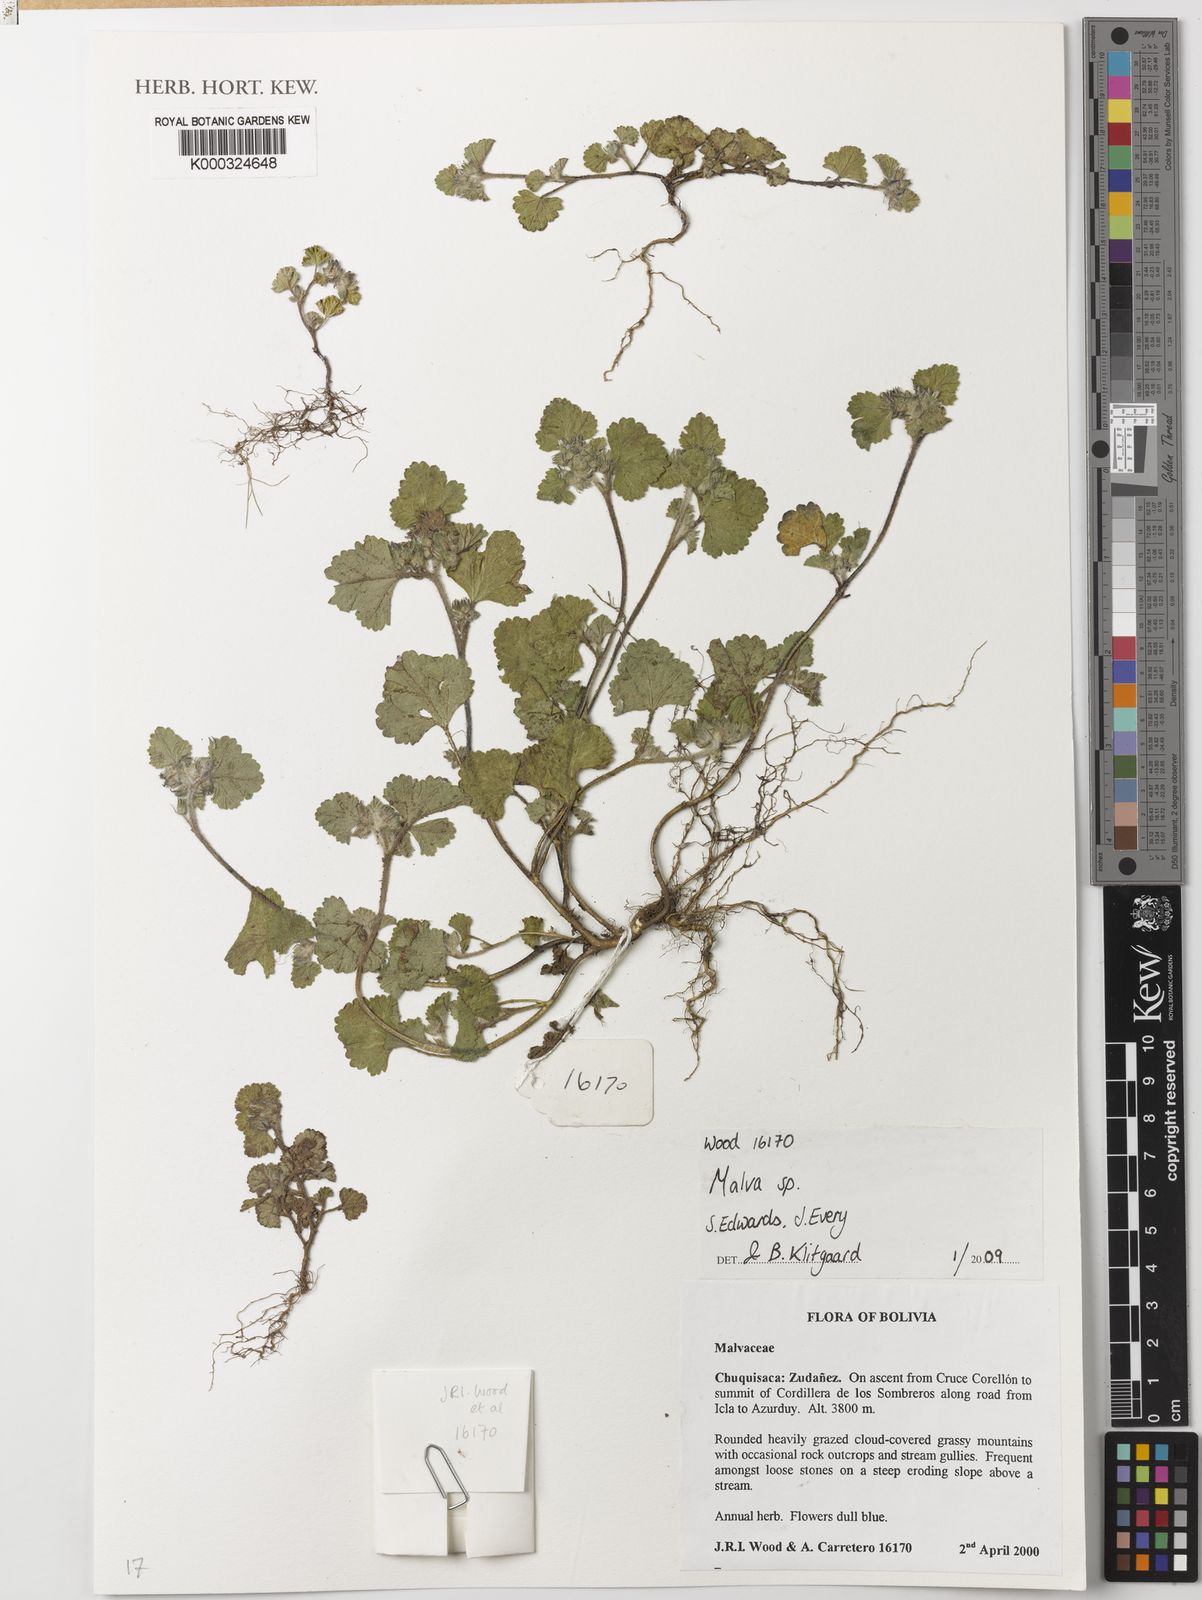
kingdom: Plantae
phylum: Tracheophyta
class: Magnoliopsida
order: Malvales
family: Malvaceae
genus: Malva
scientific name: Malva
